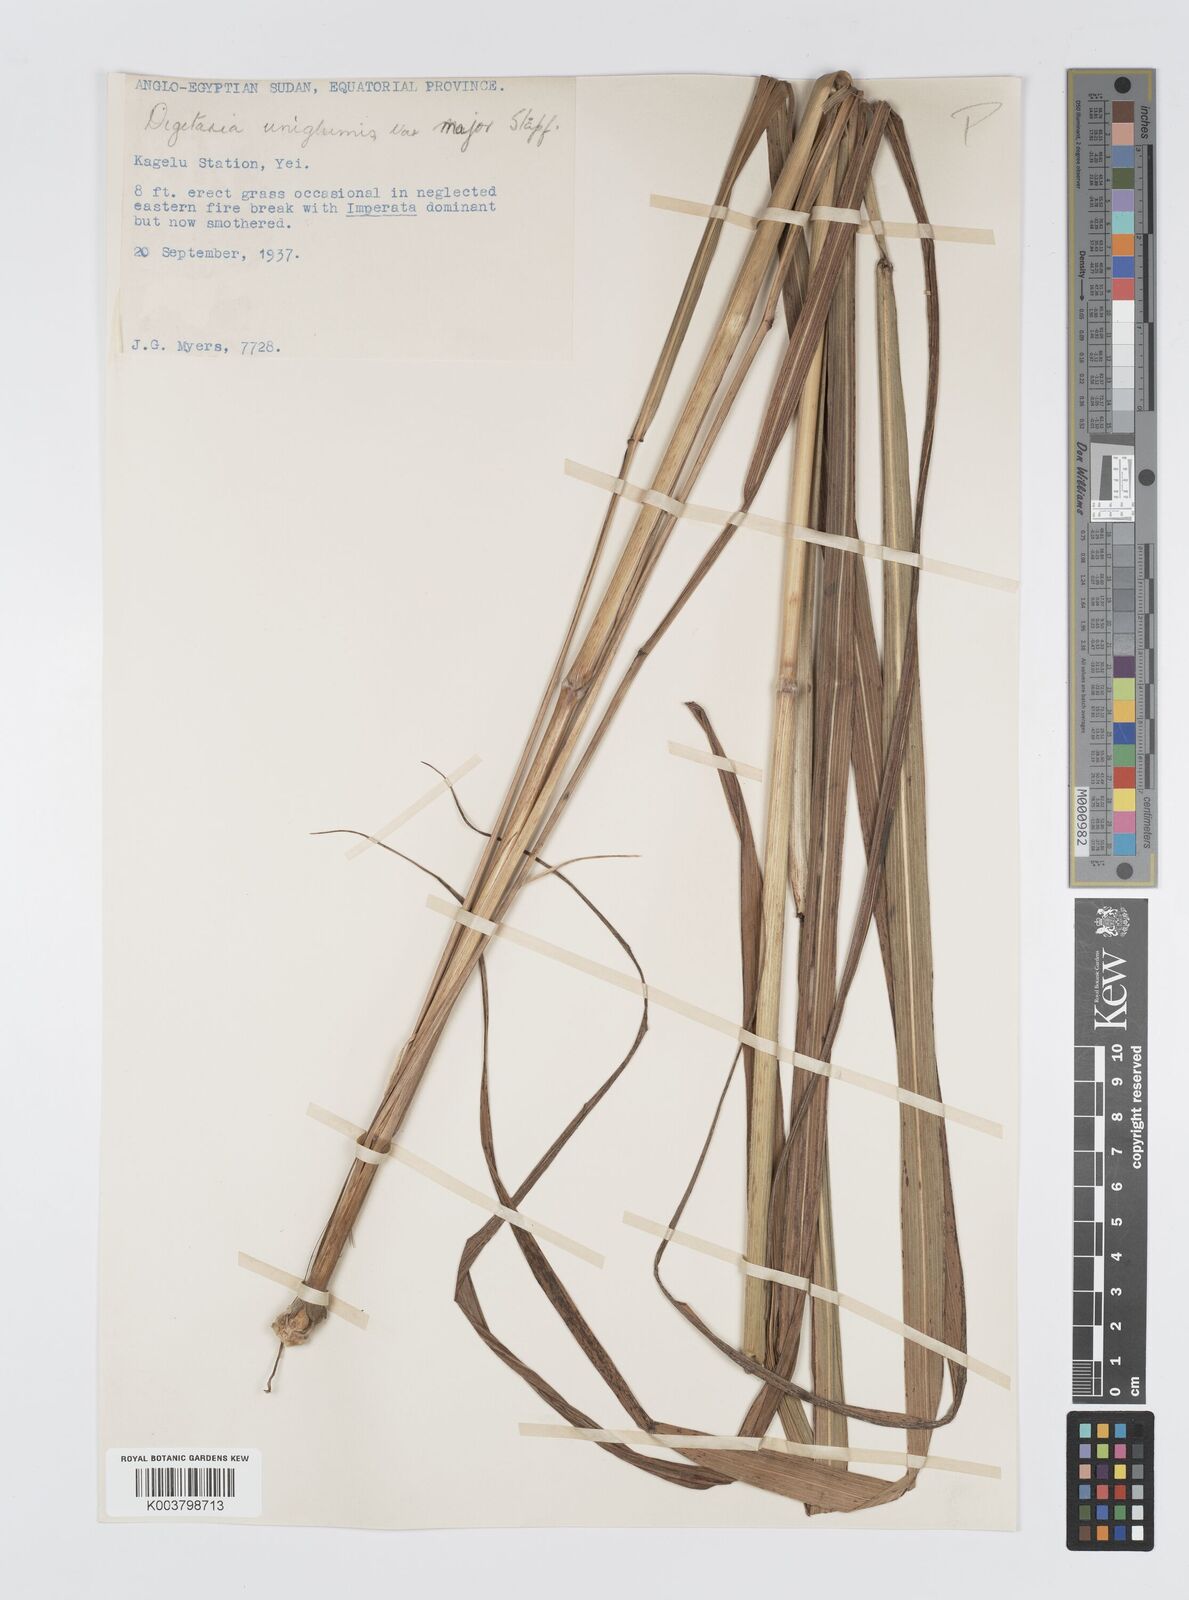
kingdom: Plantae
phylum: Tracheophyta
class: Liliopsida
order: Poales
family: Poaceae
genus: Digitaria
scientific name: Digitaria diagonalis
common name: Brown-seed finger grass
